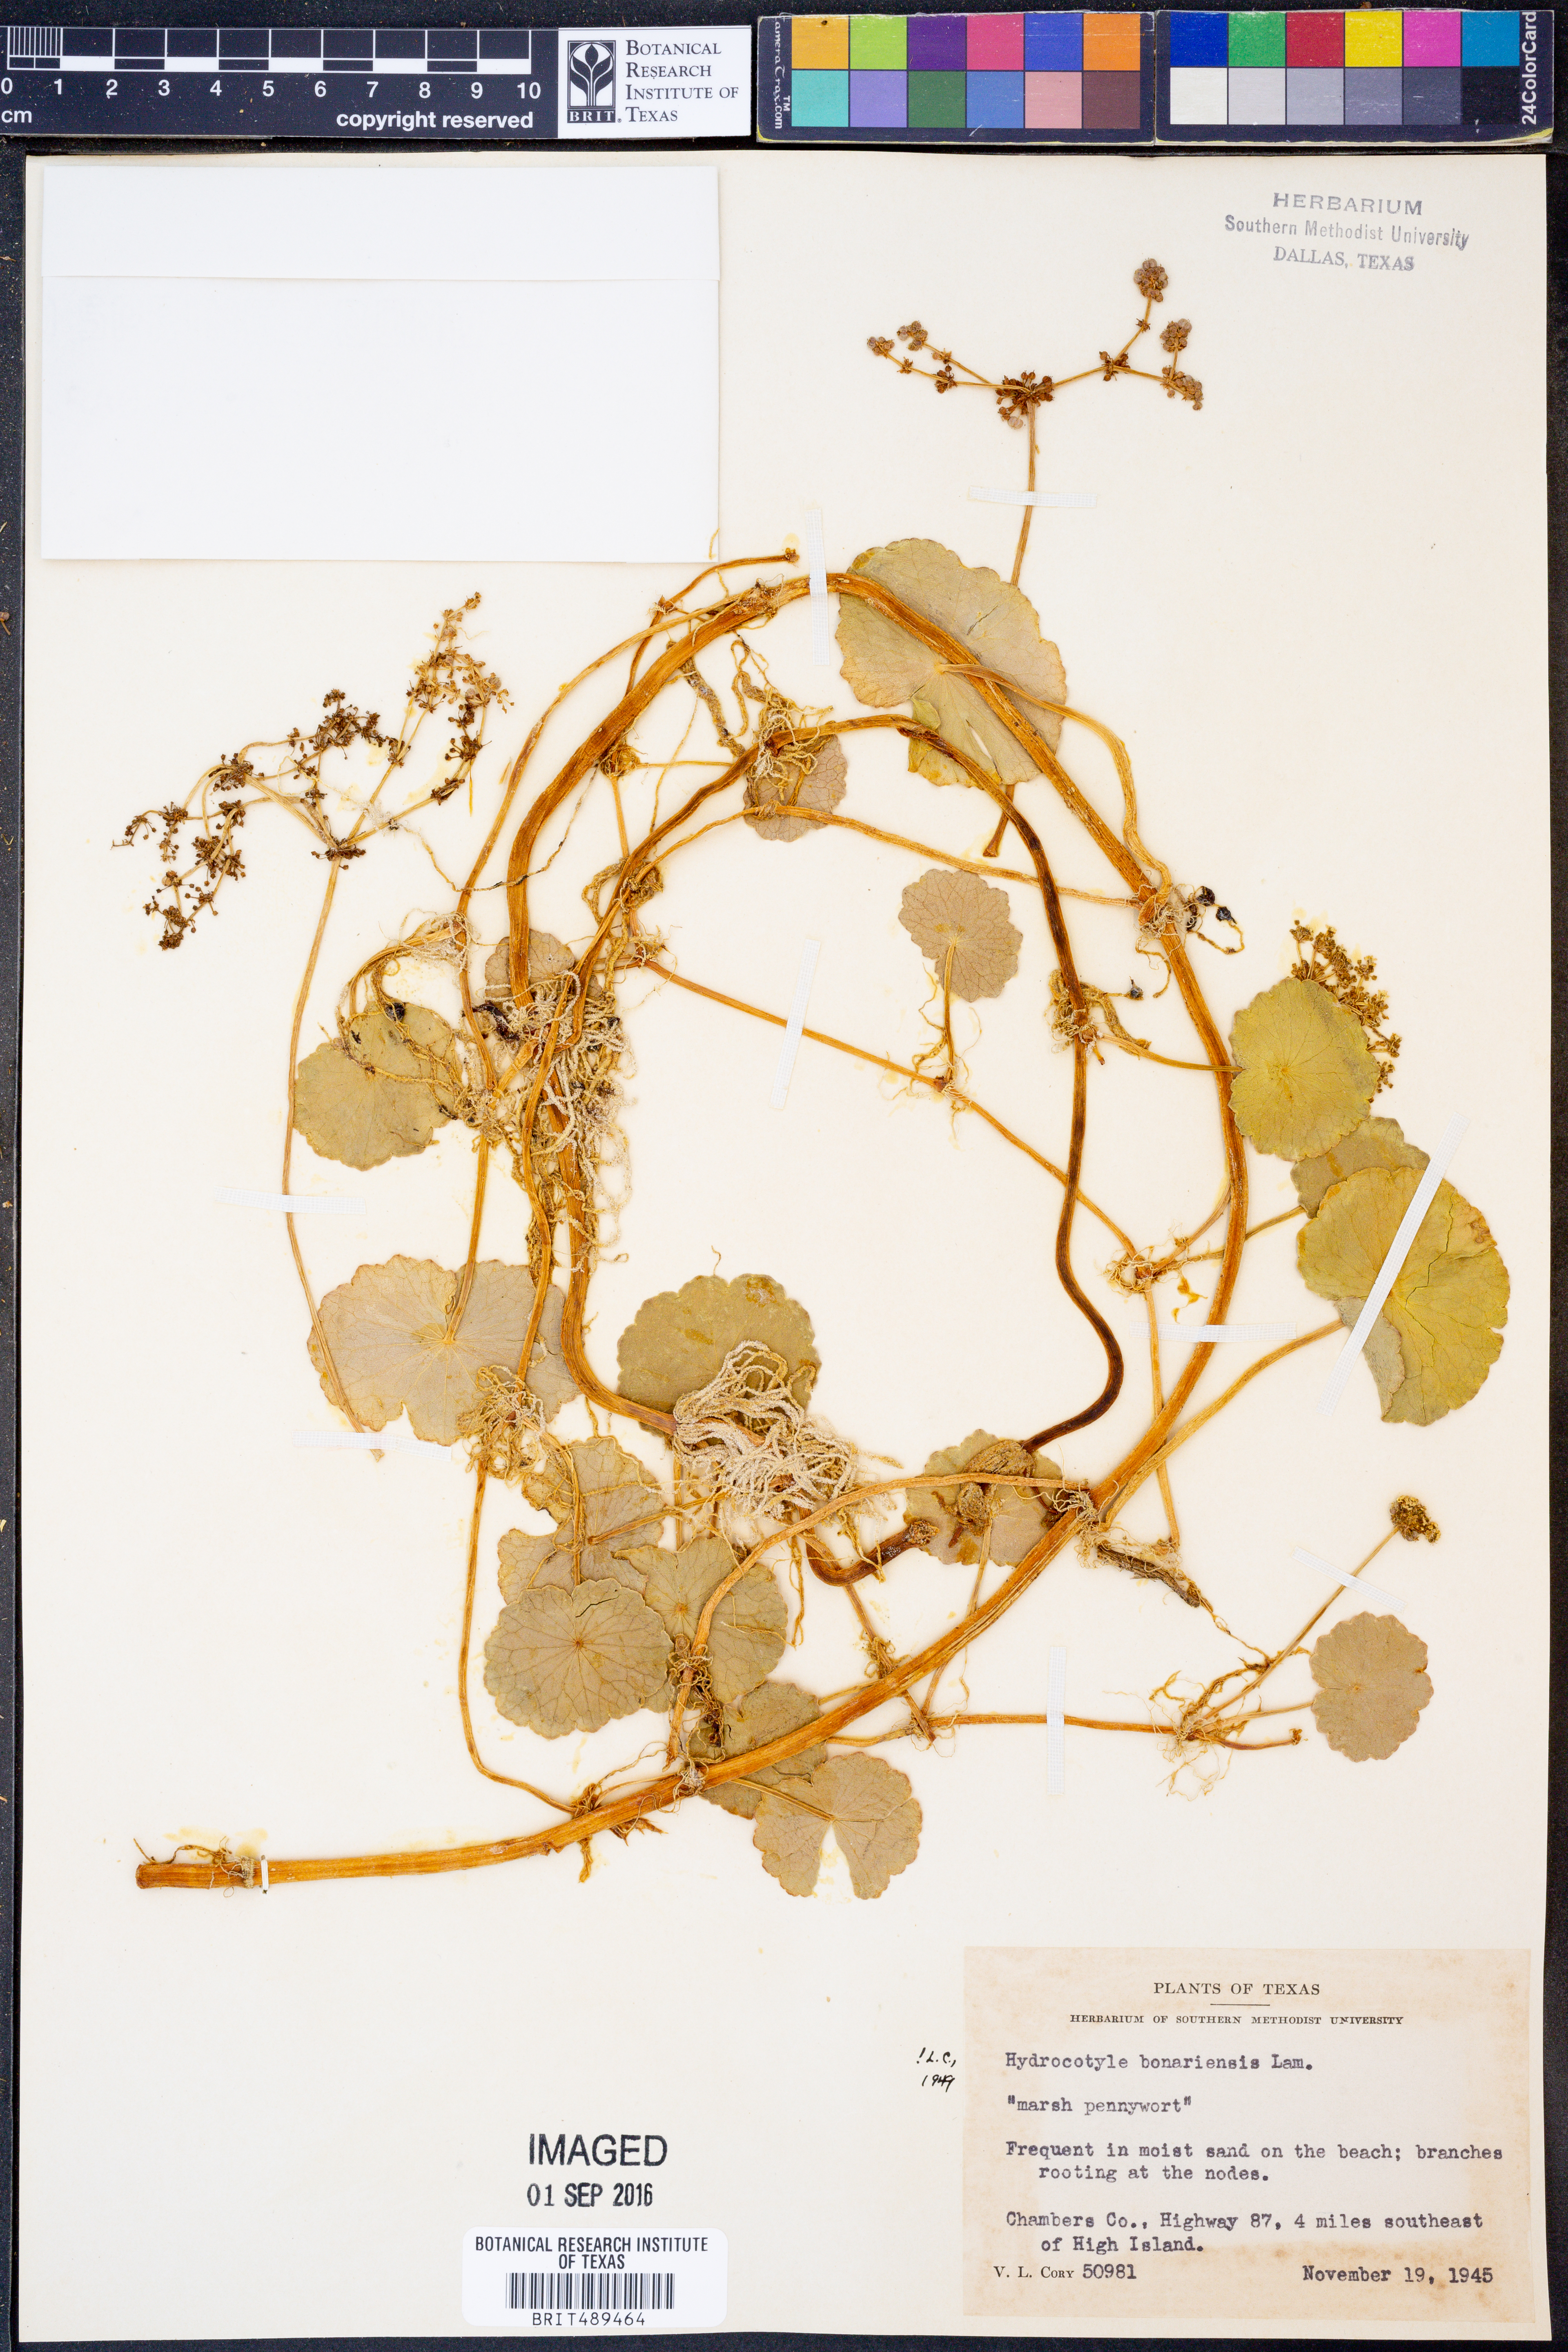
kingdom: Plantae
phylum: Tracheophyta
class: Magnoliopsida
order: Apiales
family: Araliaceae
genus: Hydrocotyle
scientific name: Hydrocotyle bonariensis
